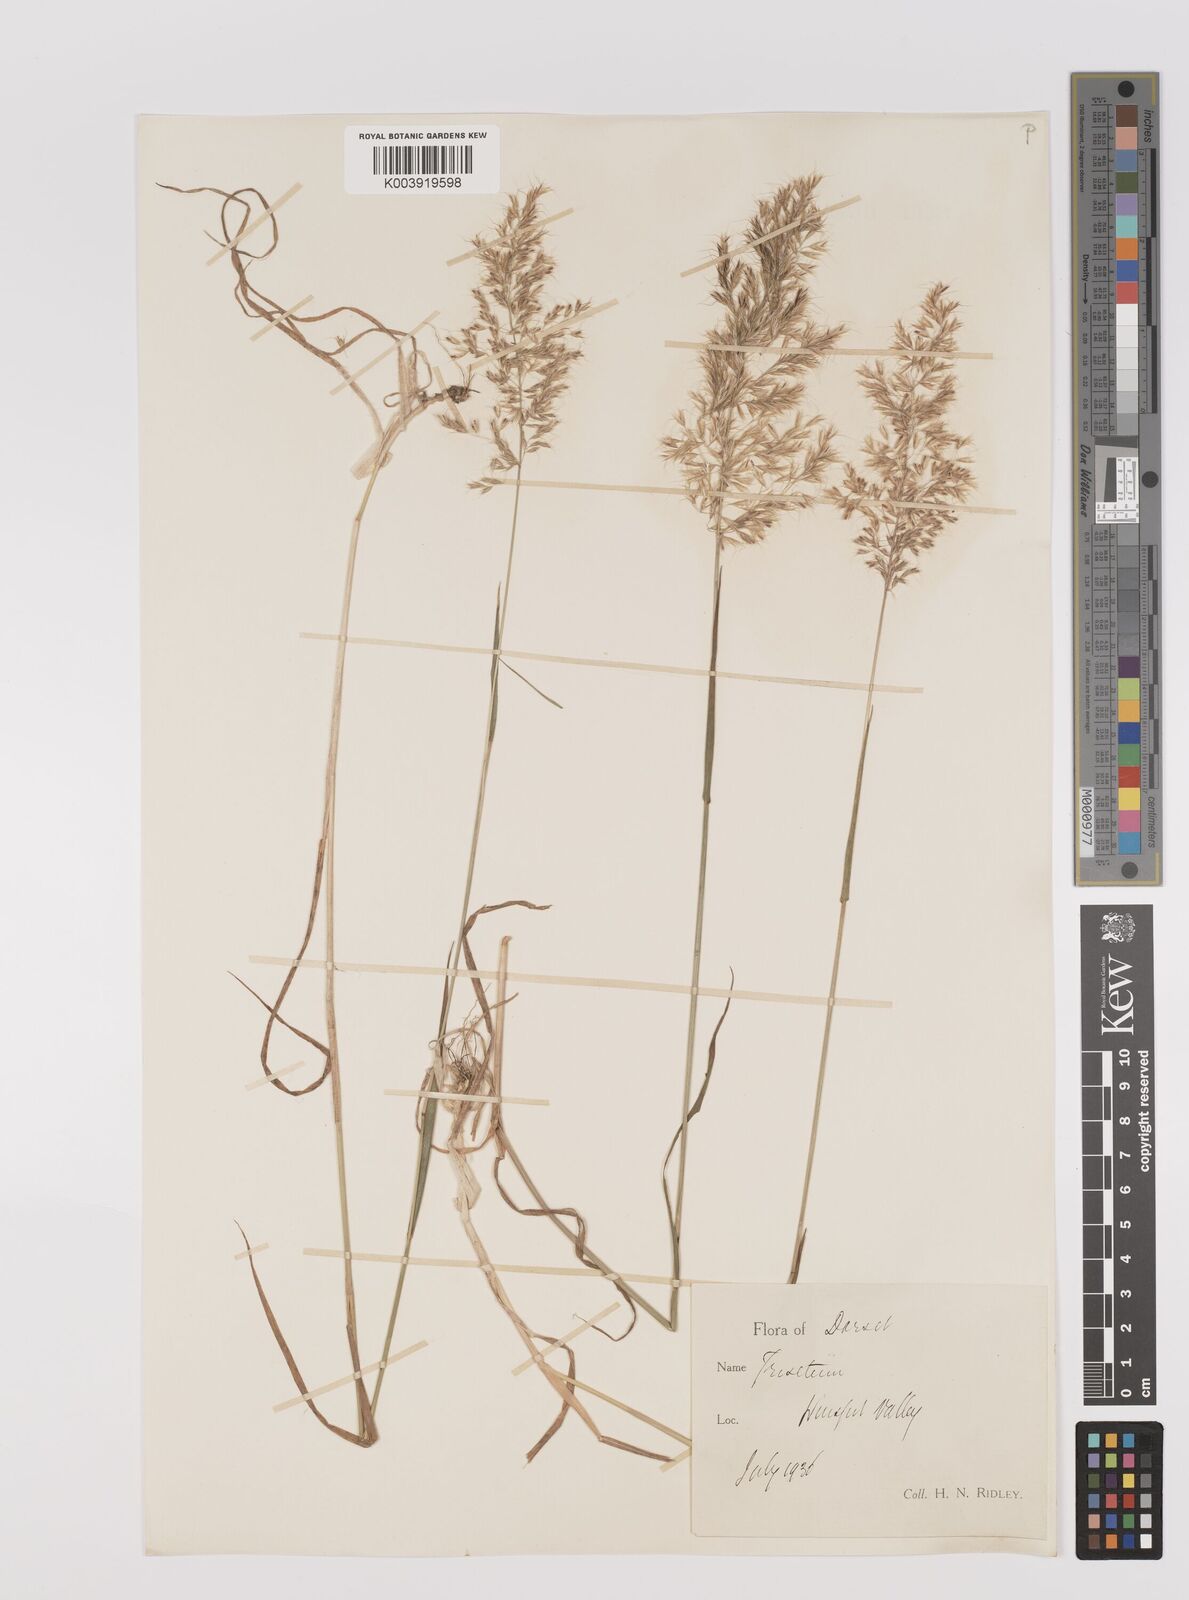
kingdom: Plantae
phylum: Tracheophyta
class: Liliopsida
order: Poales
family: Poaceae
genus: Trisetum
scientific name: Trisetum flavescens
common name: Yellow oat-grass
